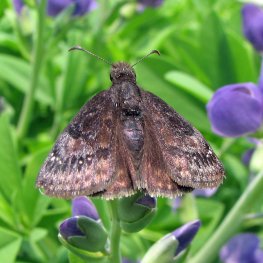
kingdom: Animalia
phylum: Arthropoda
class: Insecta
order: Lepidoptera
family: Hesperiidae
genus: Gesta
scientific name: Gesta
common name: Wild Indigo Duskywing
